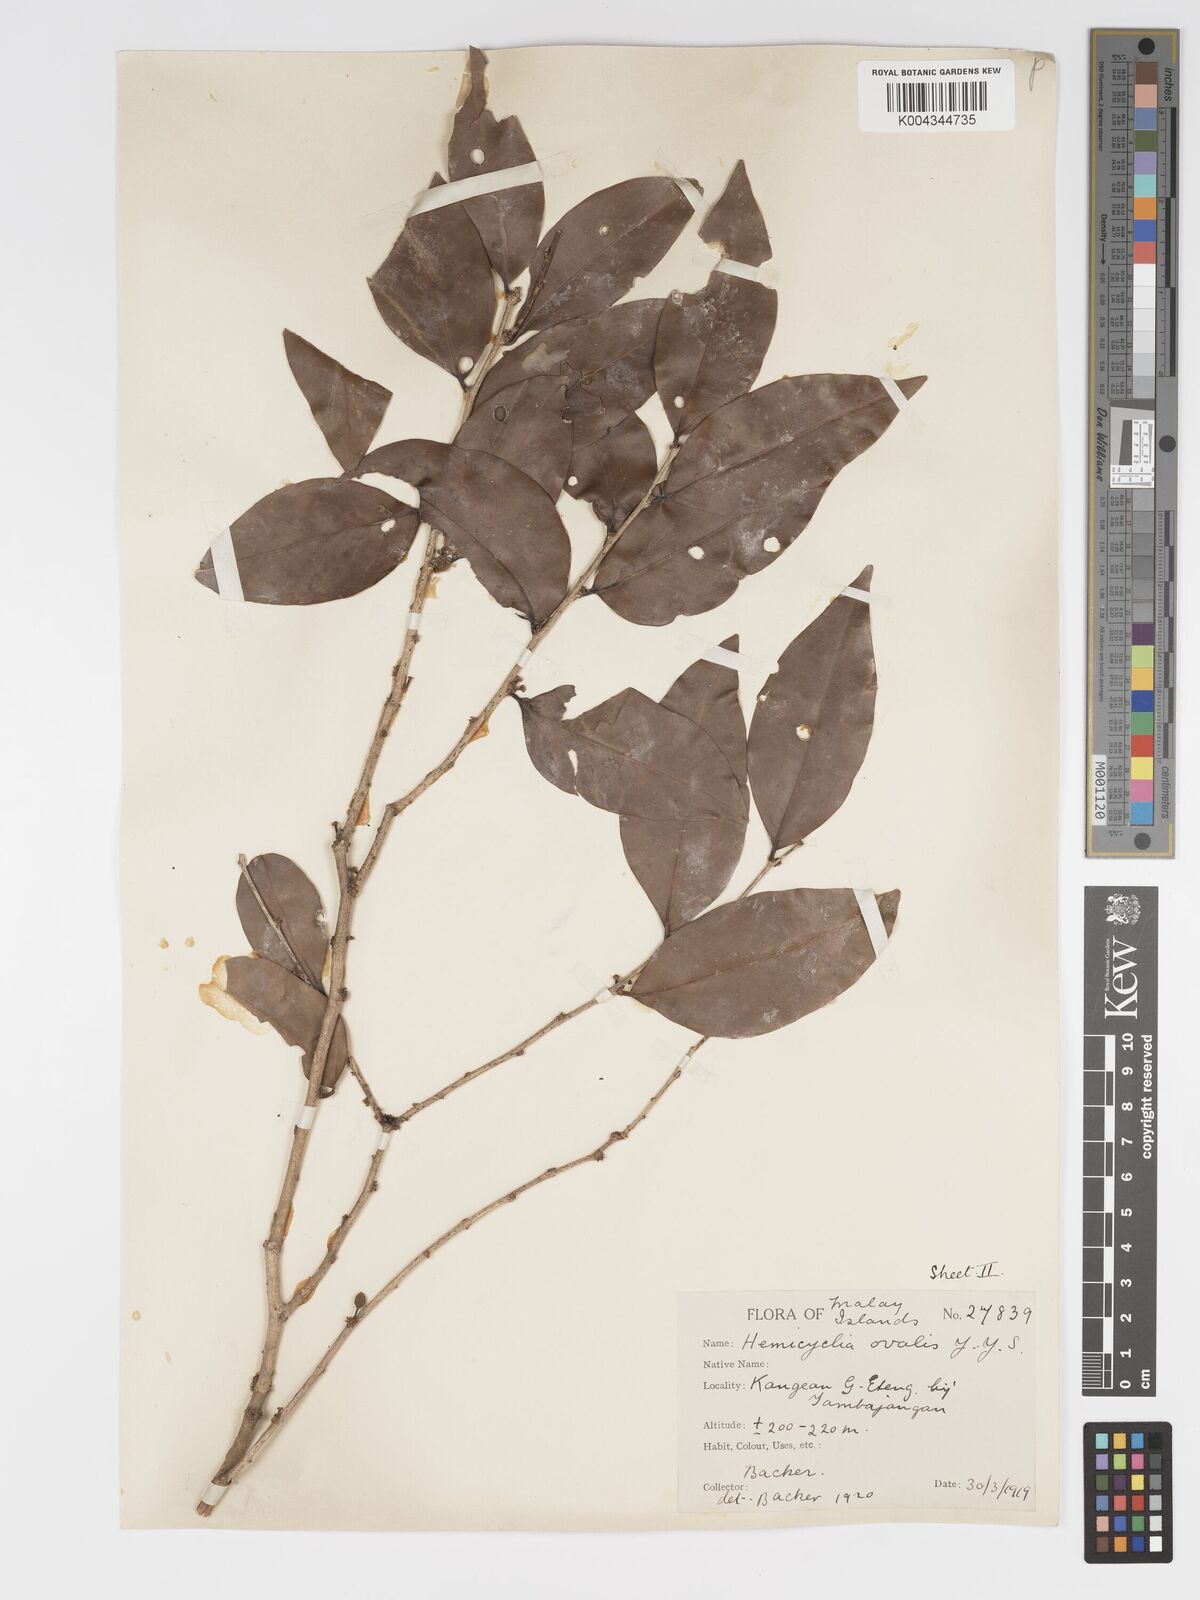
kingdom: Plantae
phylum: Tracheophyta
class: Magnoliopsida
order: Malpighiales
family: Putranjivaceae
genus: Drypetes
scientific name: Drypetes ovalis
